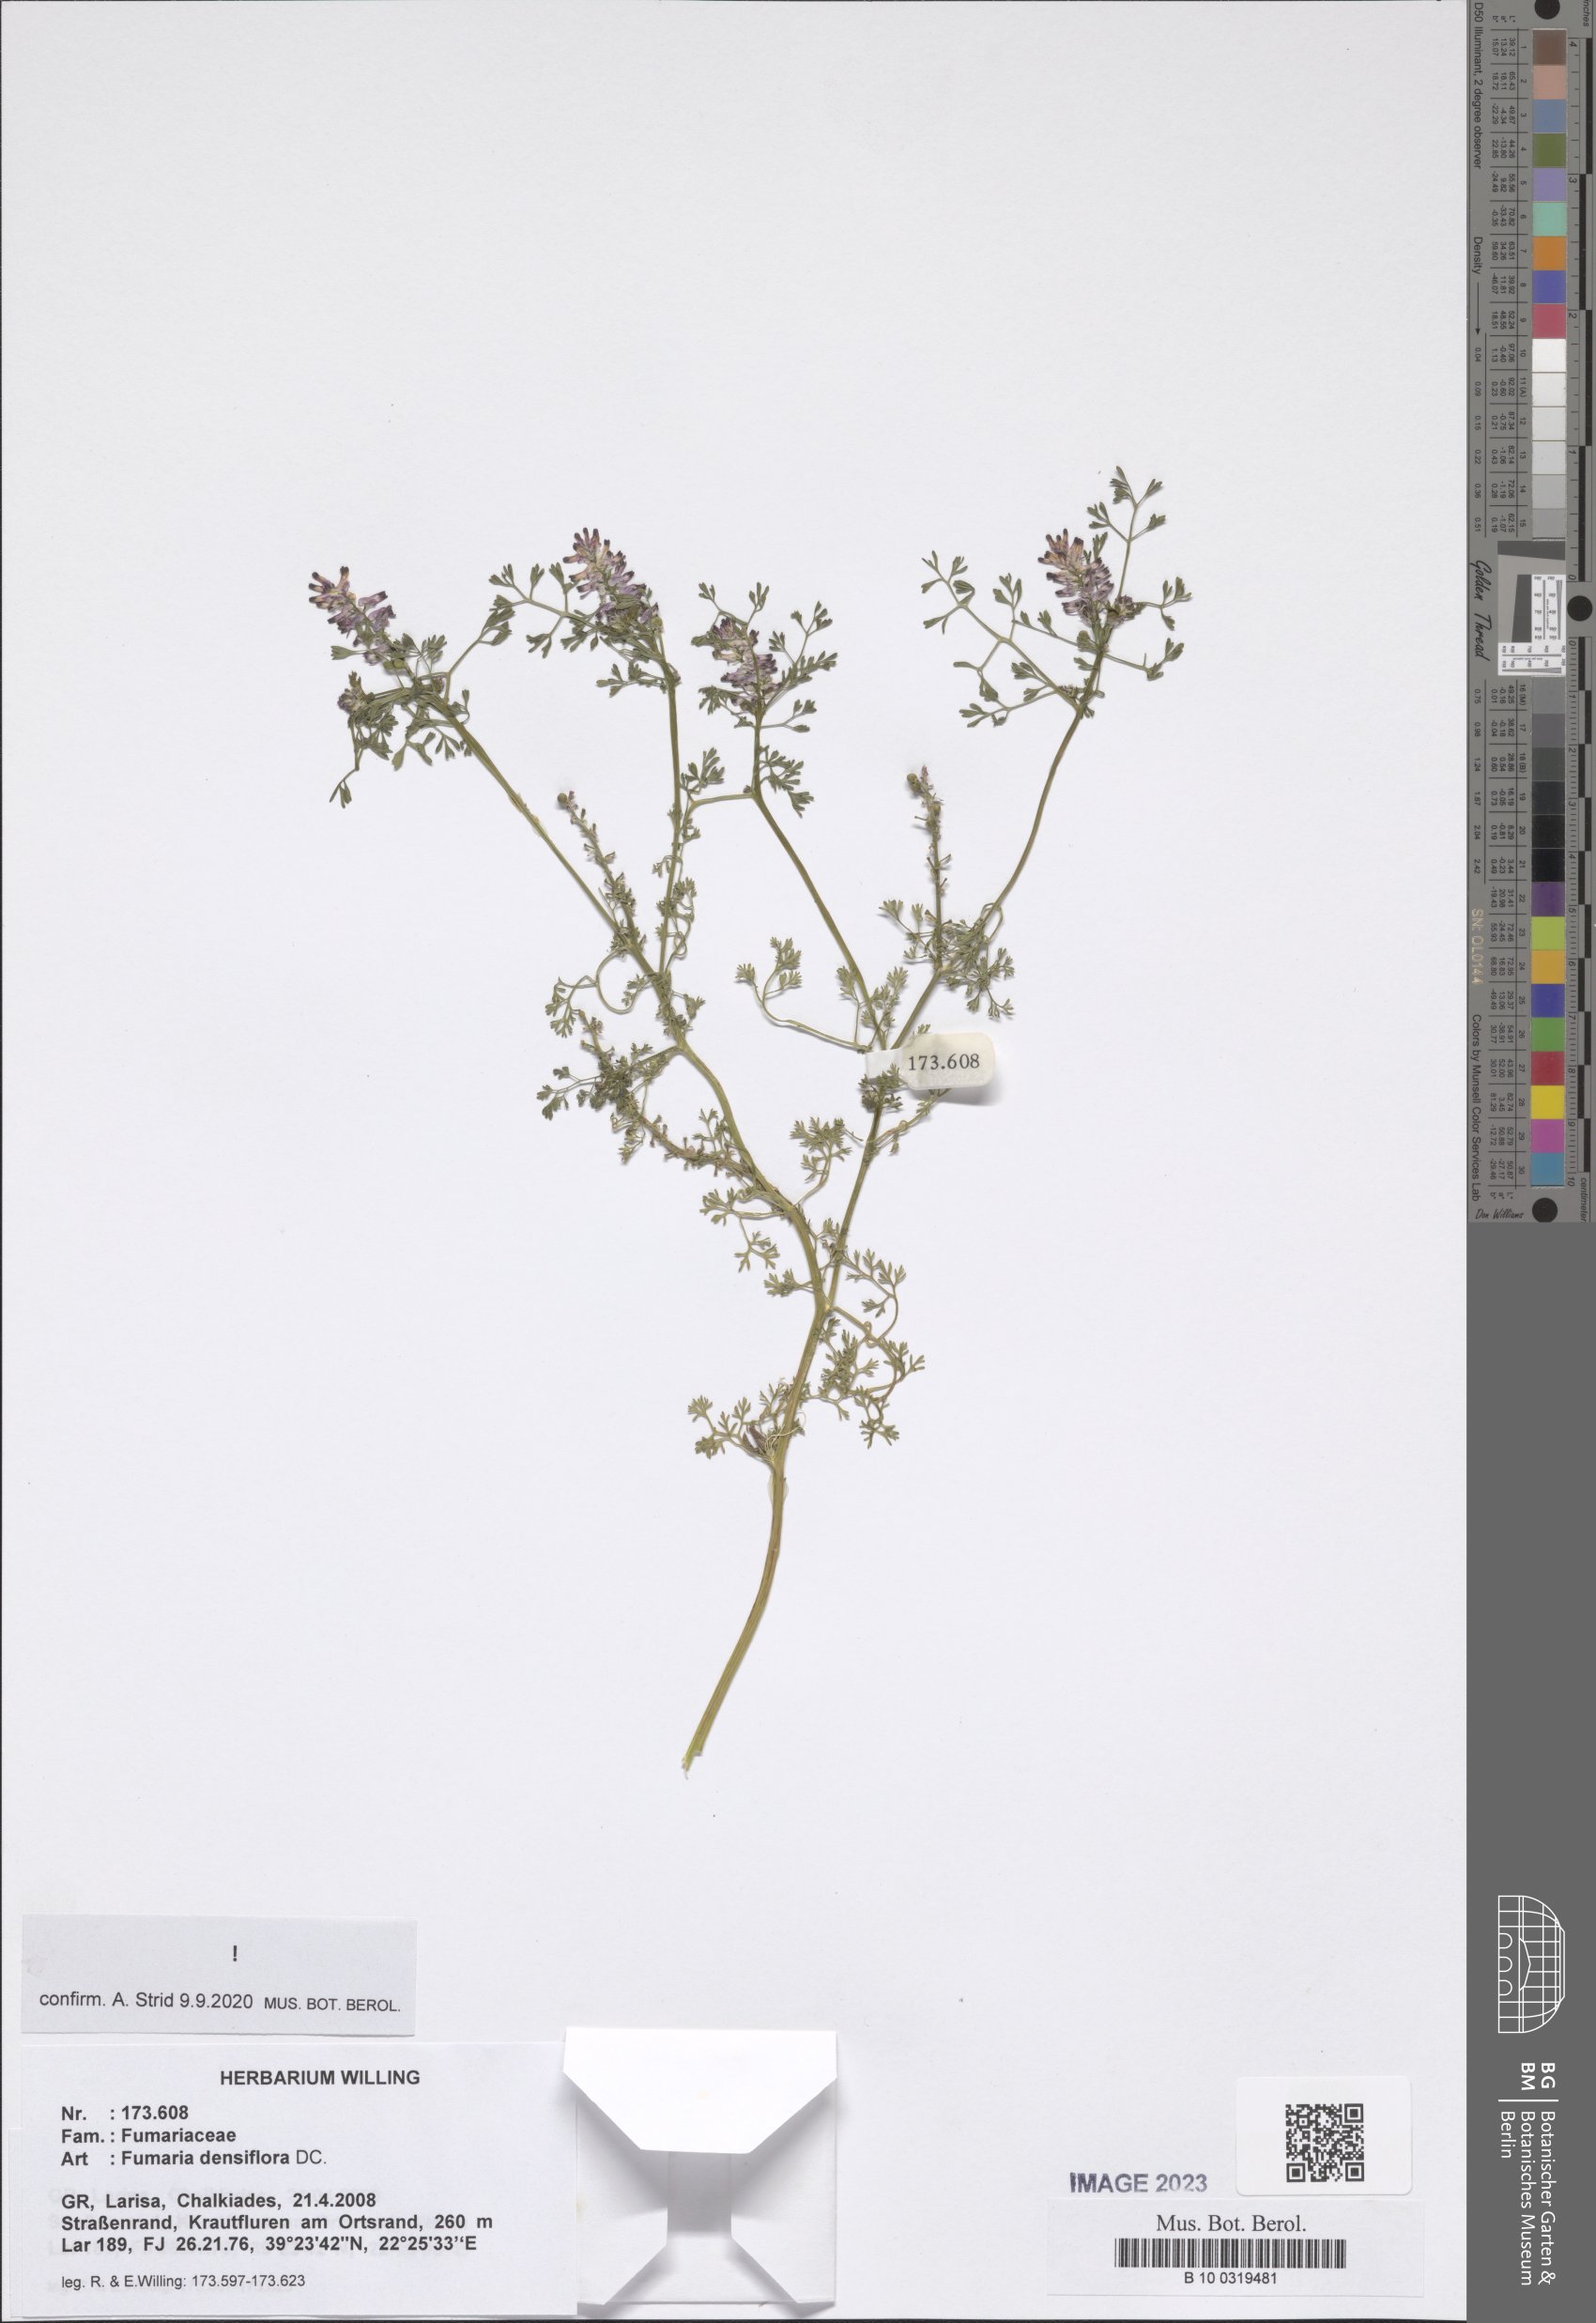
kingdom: Plantae
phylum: Tracheophyta
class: Magnoliopsida
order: Ranunculales
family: Papaveraceae
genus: Fumaria
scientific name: Fumaria densiflora
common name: Dense-flowered fumitory
